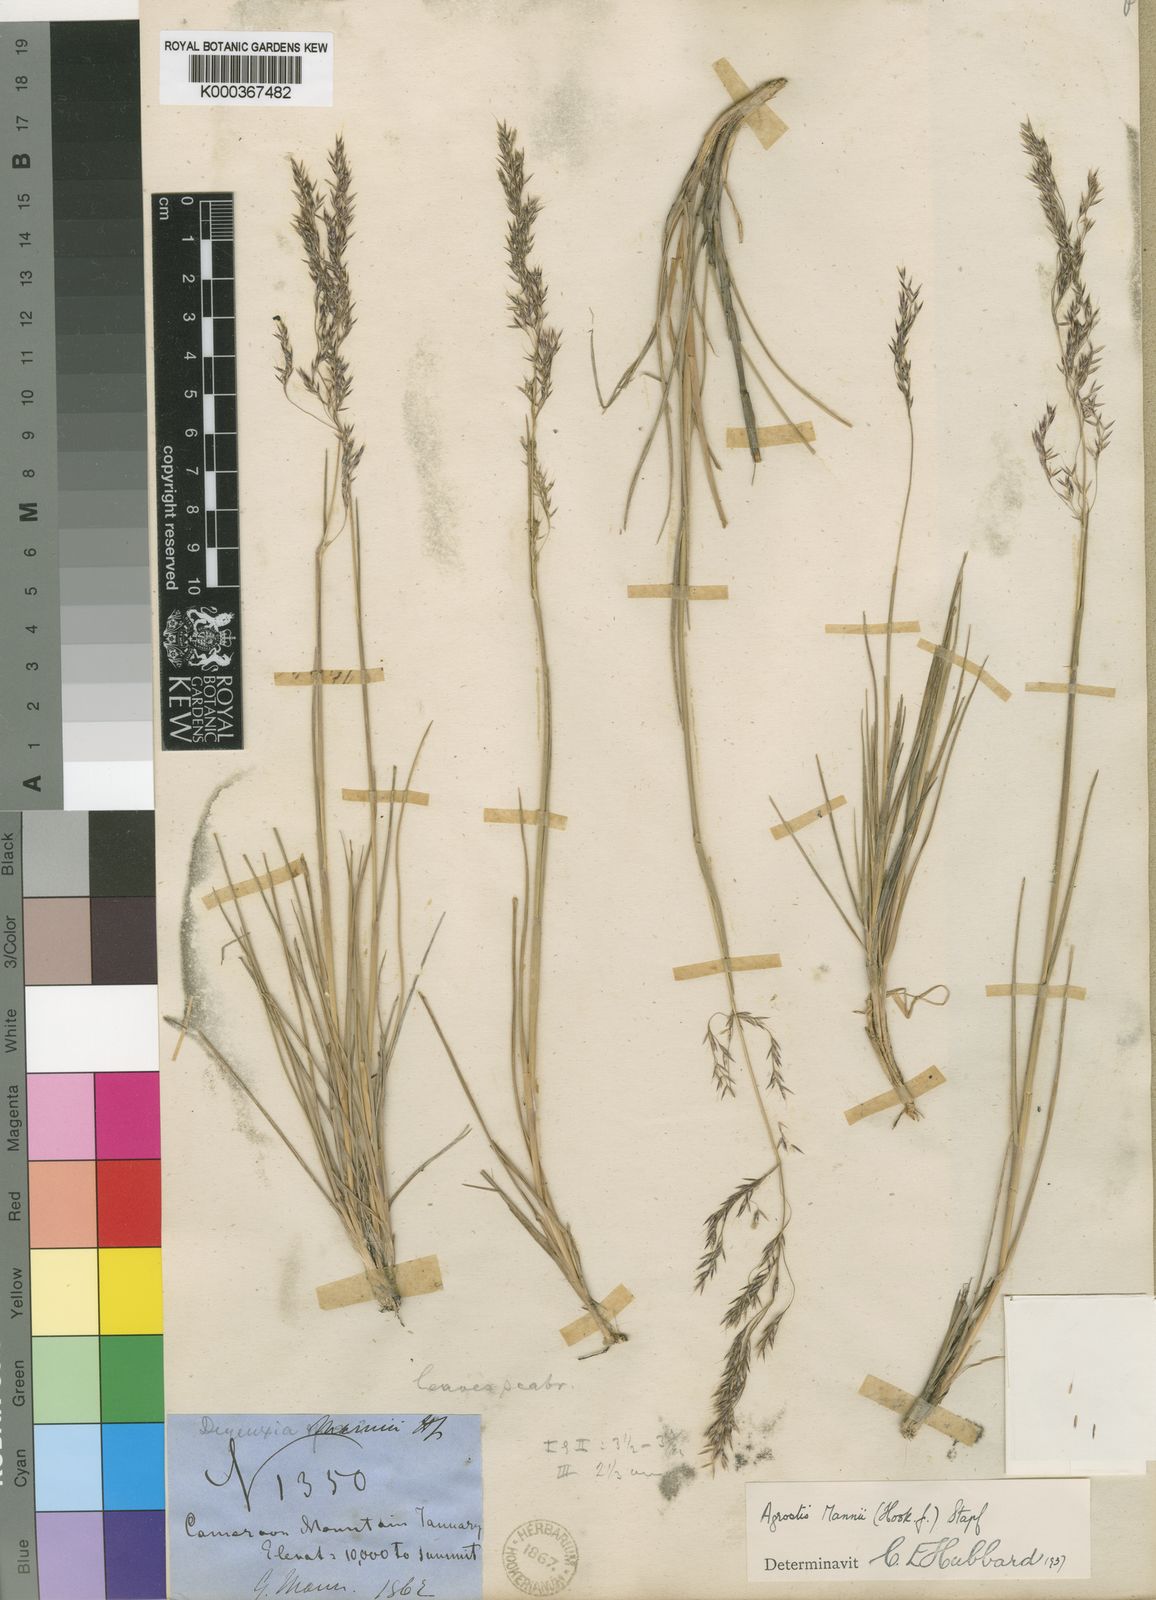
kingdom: Plantae
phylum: Tracheophyta
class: Liliopsida
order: Poales
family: Poaceae
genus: Agrostis
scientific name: Agrostis mannii
